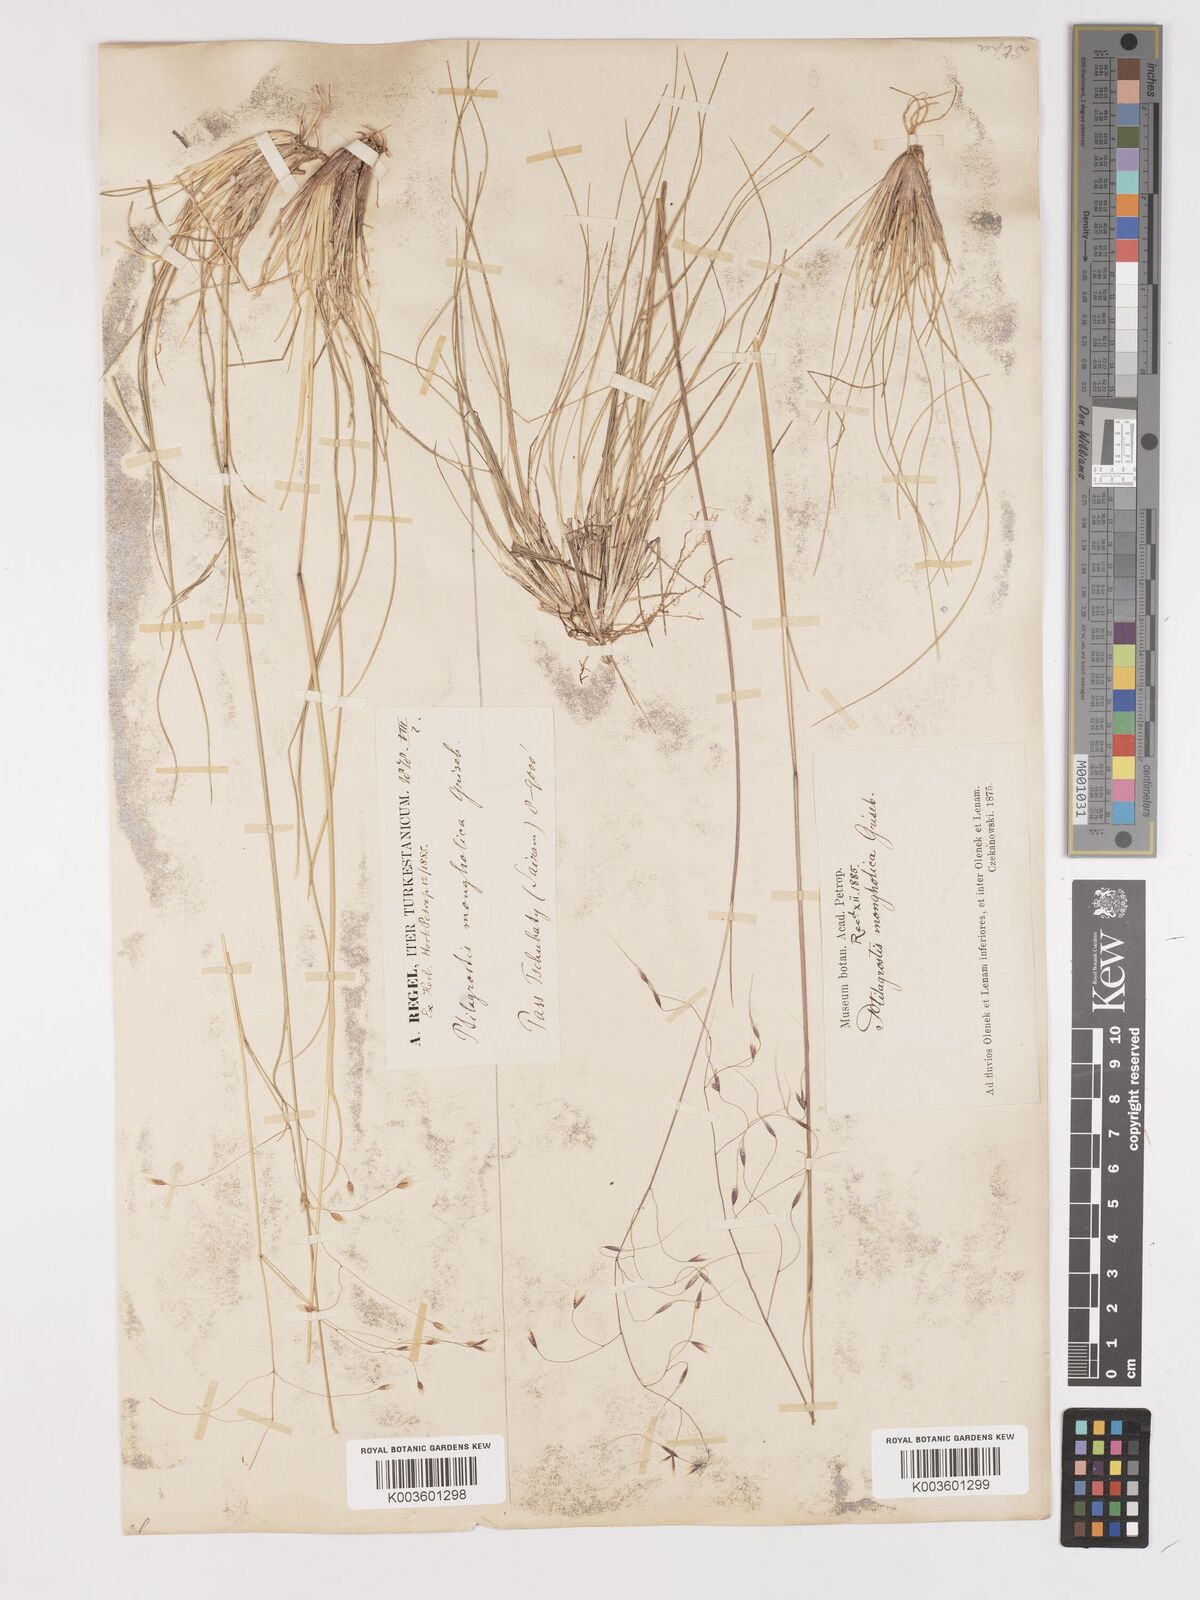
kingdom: Plantae
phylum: Tracheophyta
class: Liliopsida
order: Poales
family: Poaceae
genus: Ptilagrostis
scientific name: Ptilagrostis mongholica
